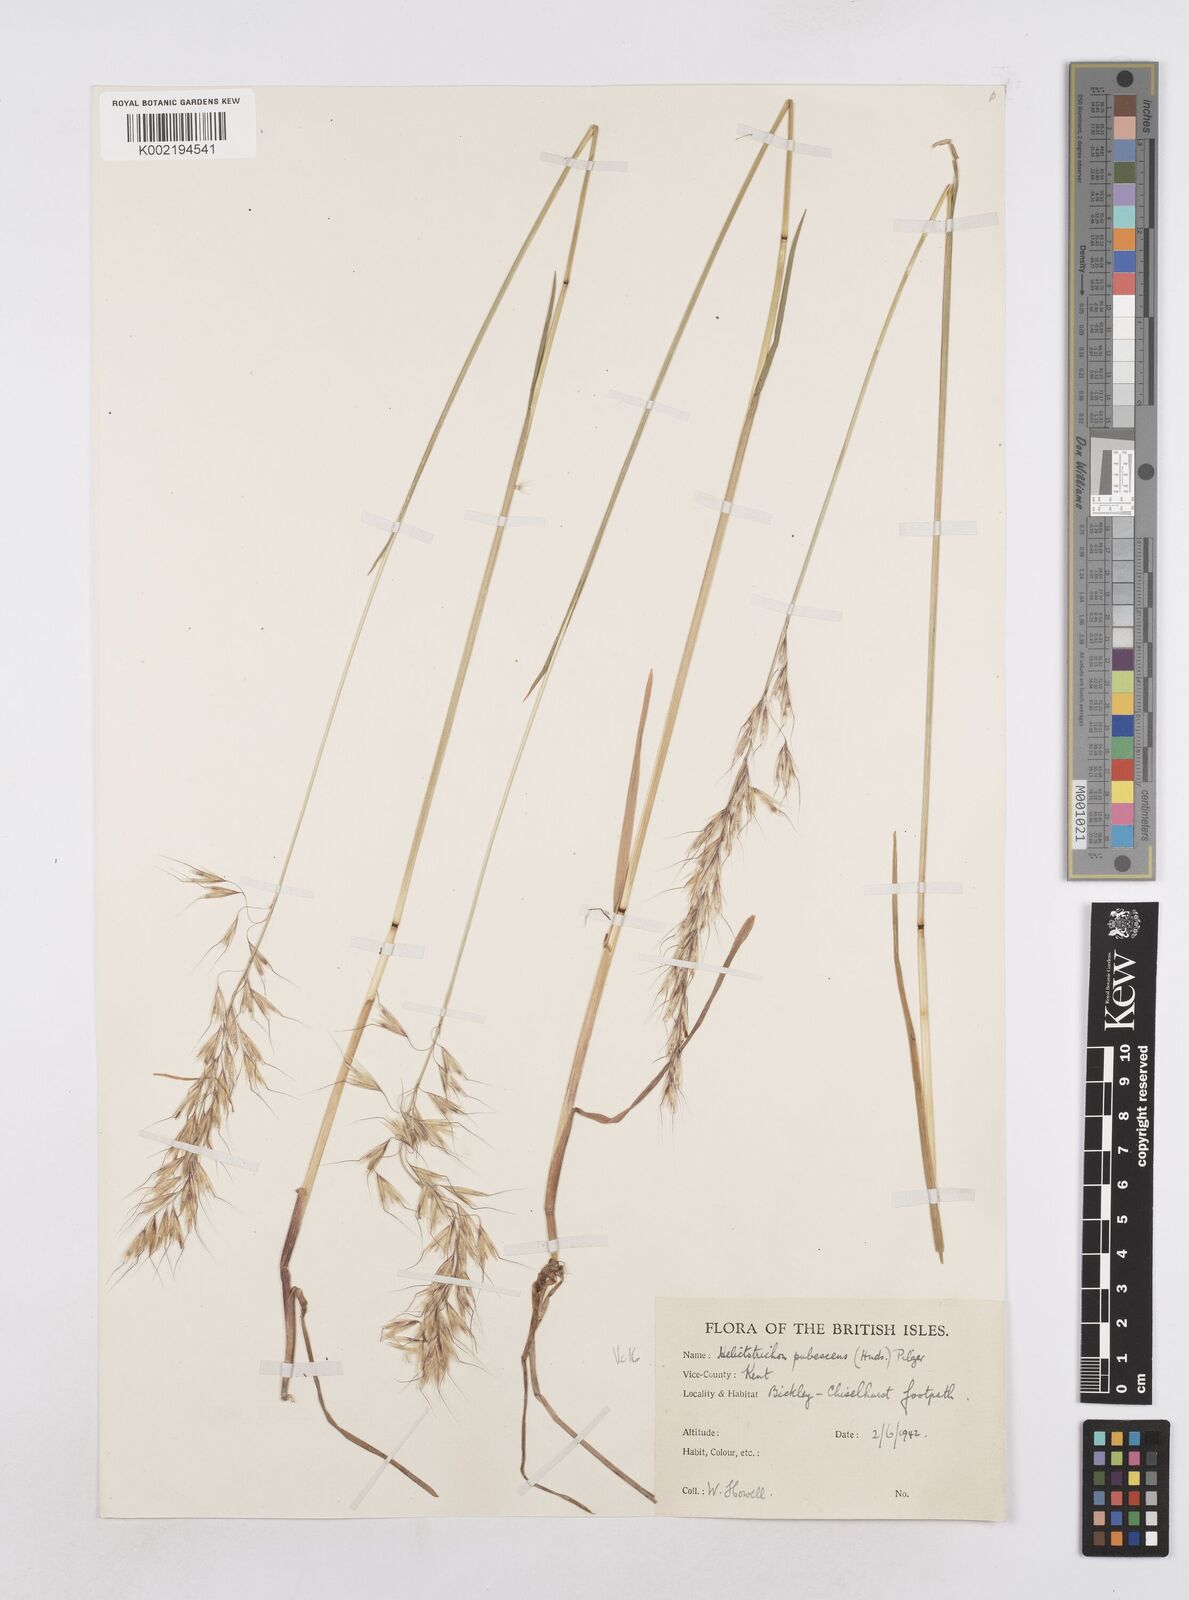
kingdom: Plantae
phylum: Tracheophyta
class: Liliopsida
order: Poales
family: Poaceae
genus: Avenula
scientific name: Avenula pubescens
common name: Downy alpine oatgrass
